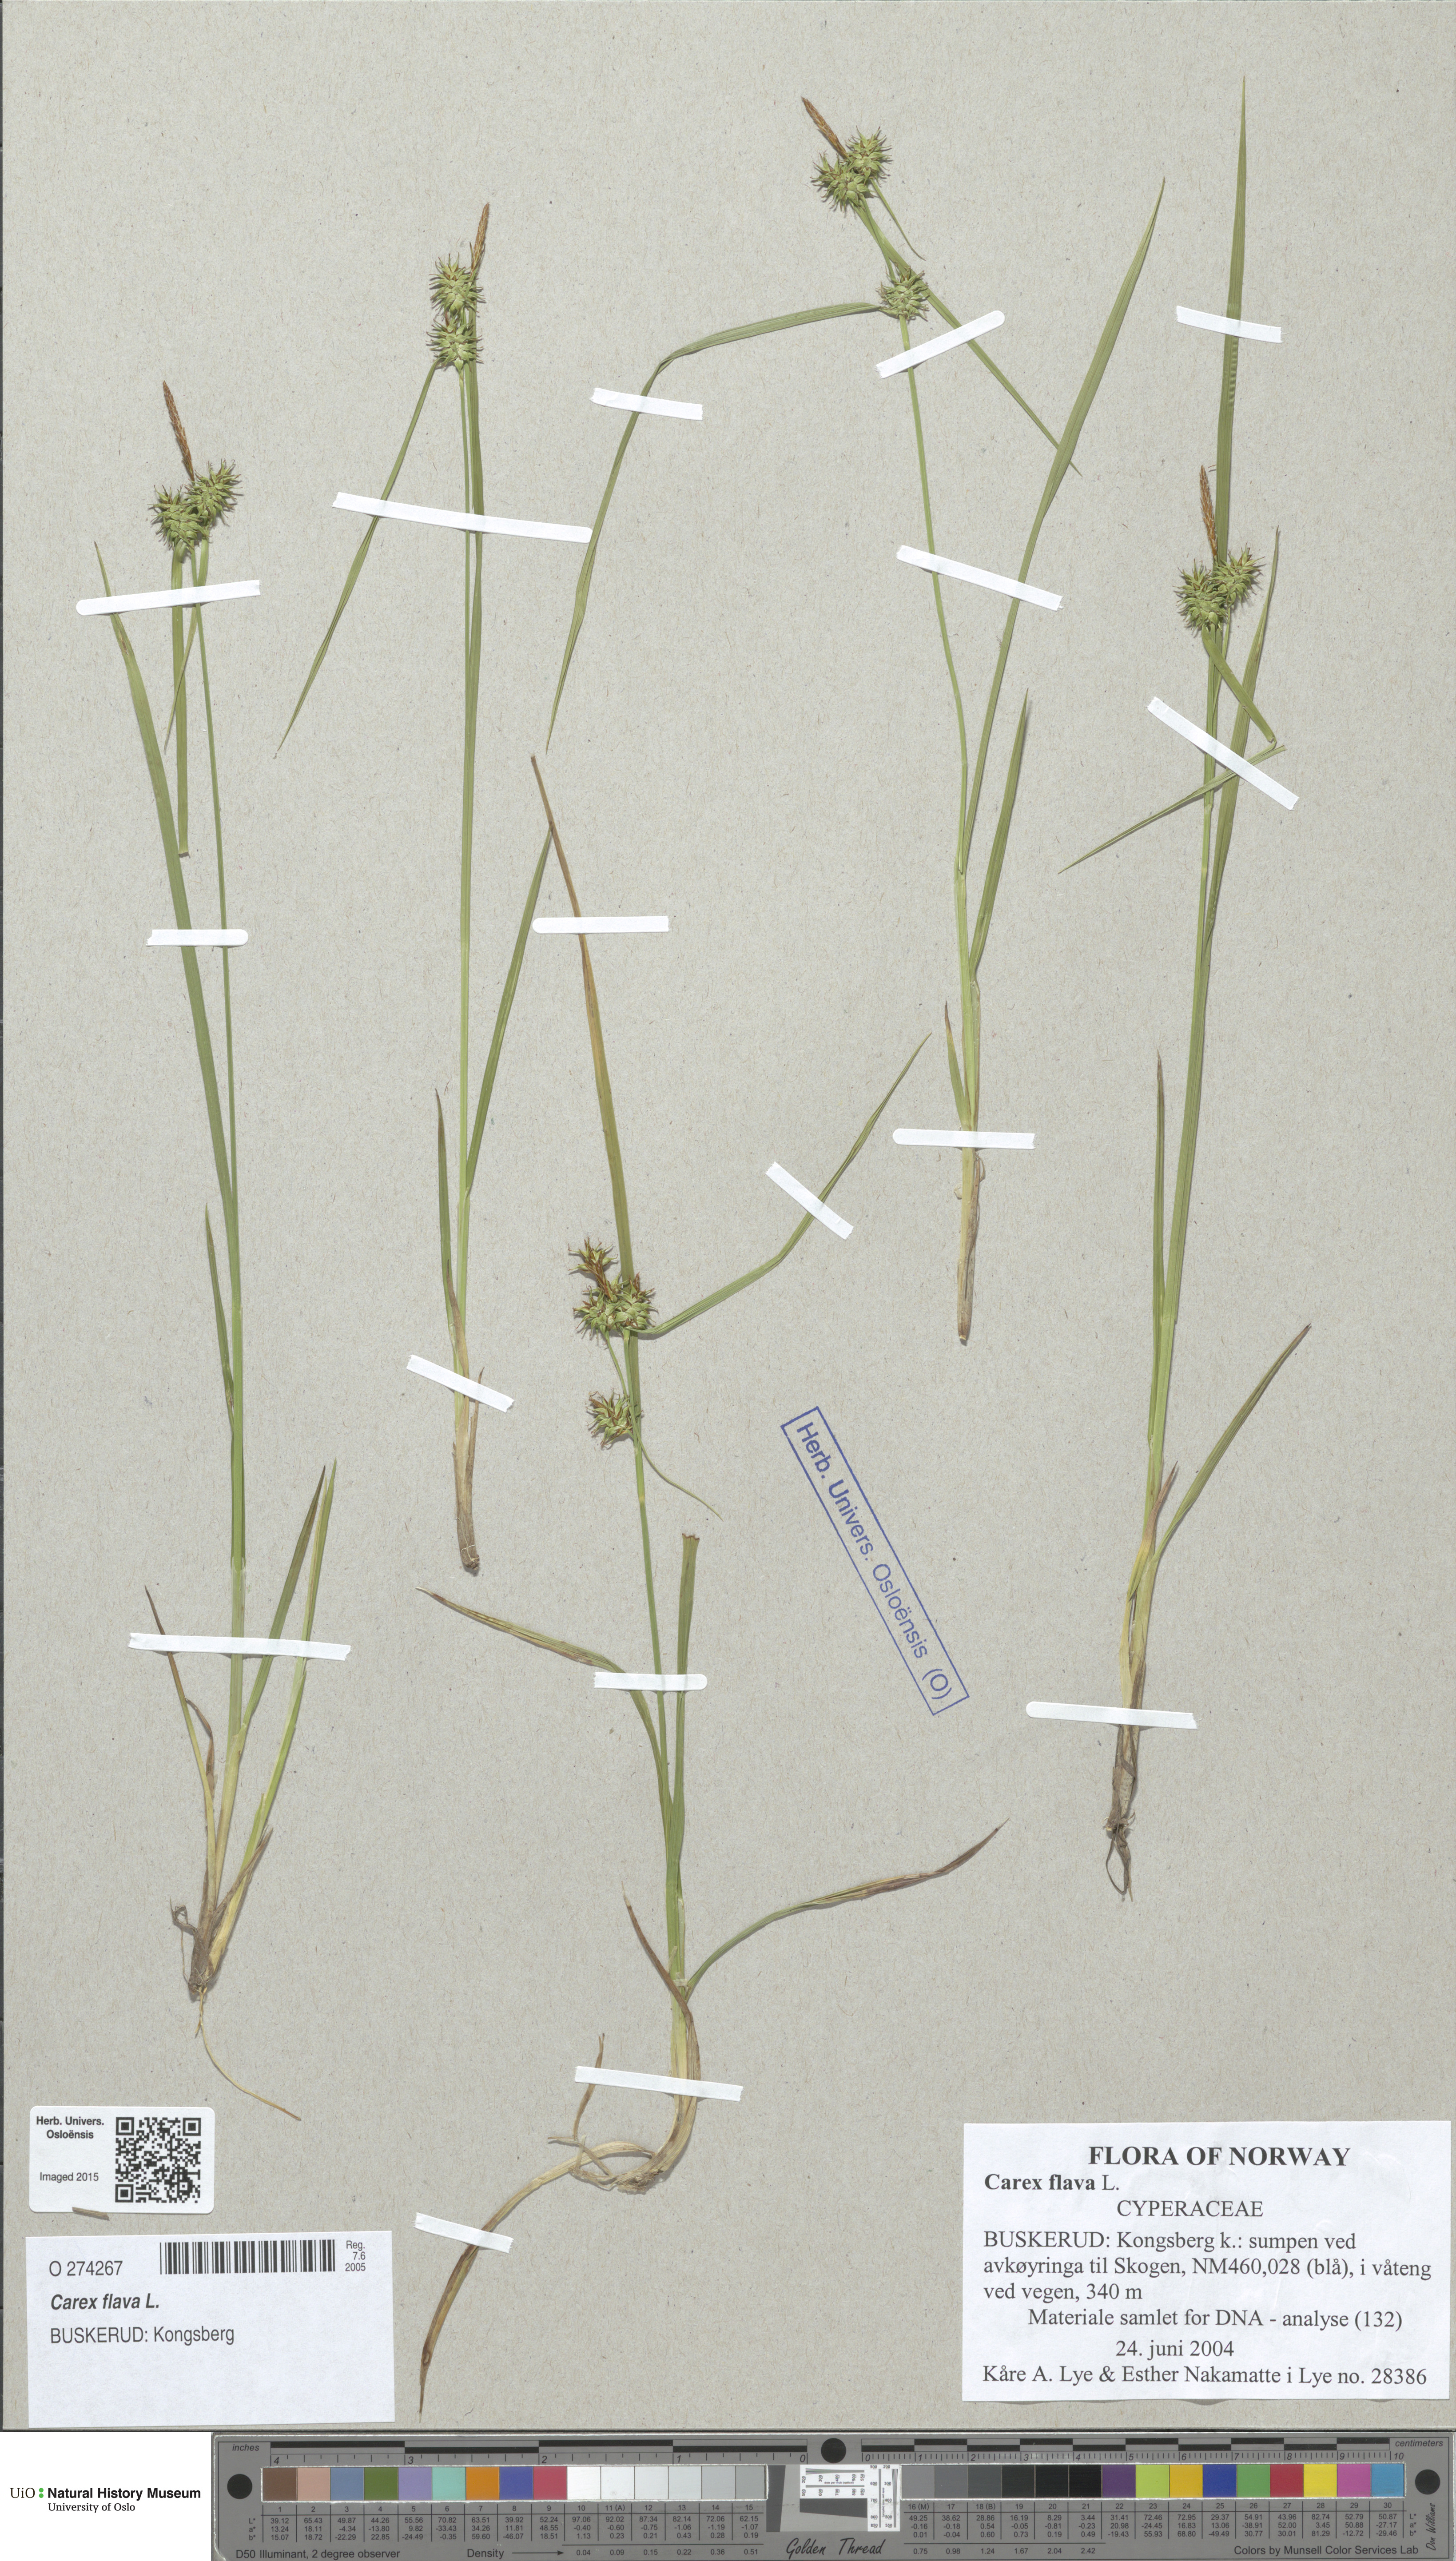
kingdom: Plantae
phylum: Tracheophyta
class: Liliopsida
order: Poales
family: Cyperaceae
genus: Carex
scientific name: Carex flava
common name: Large yellow-sedge
